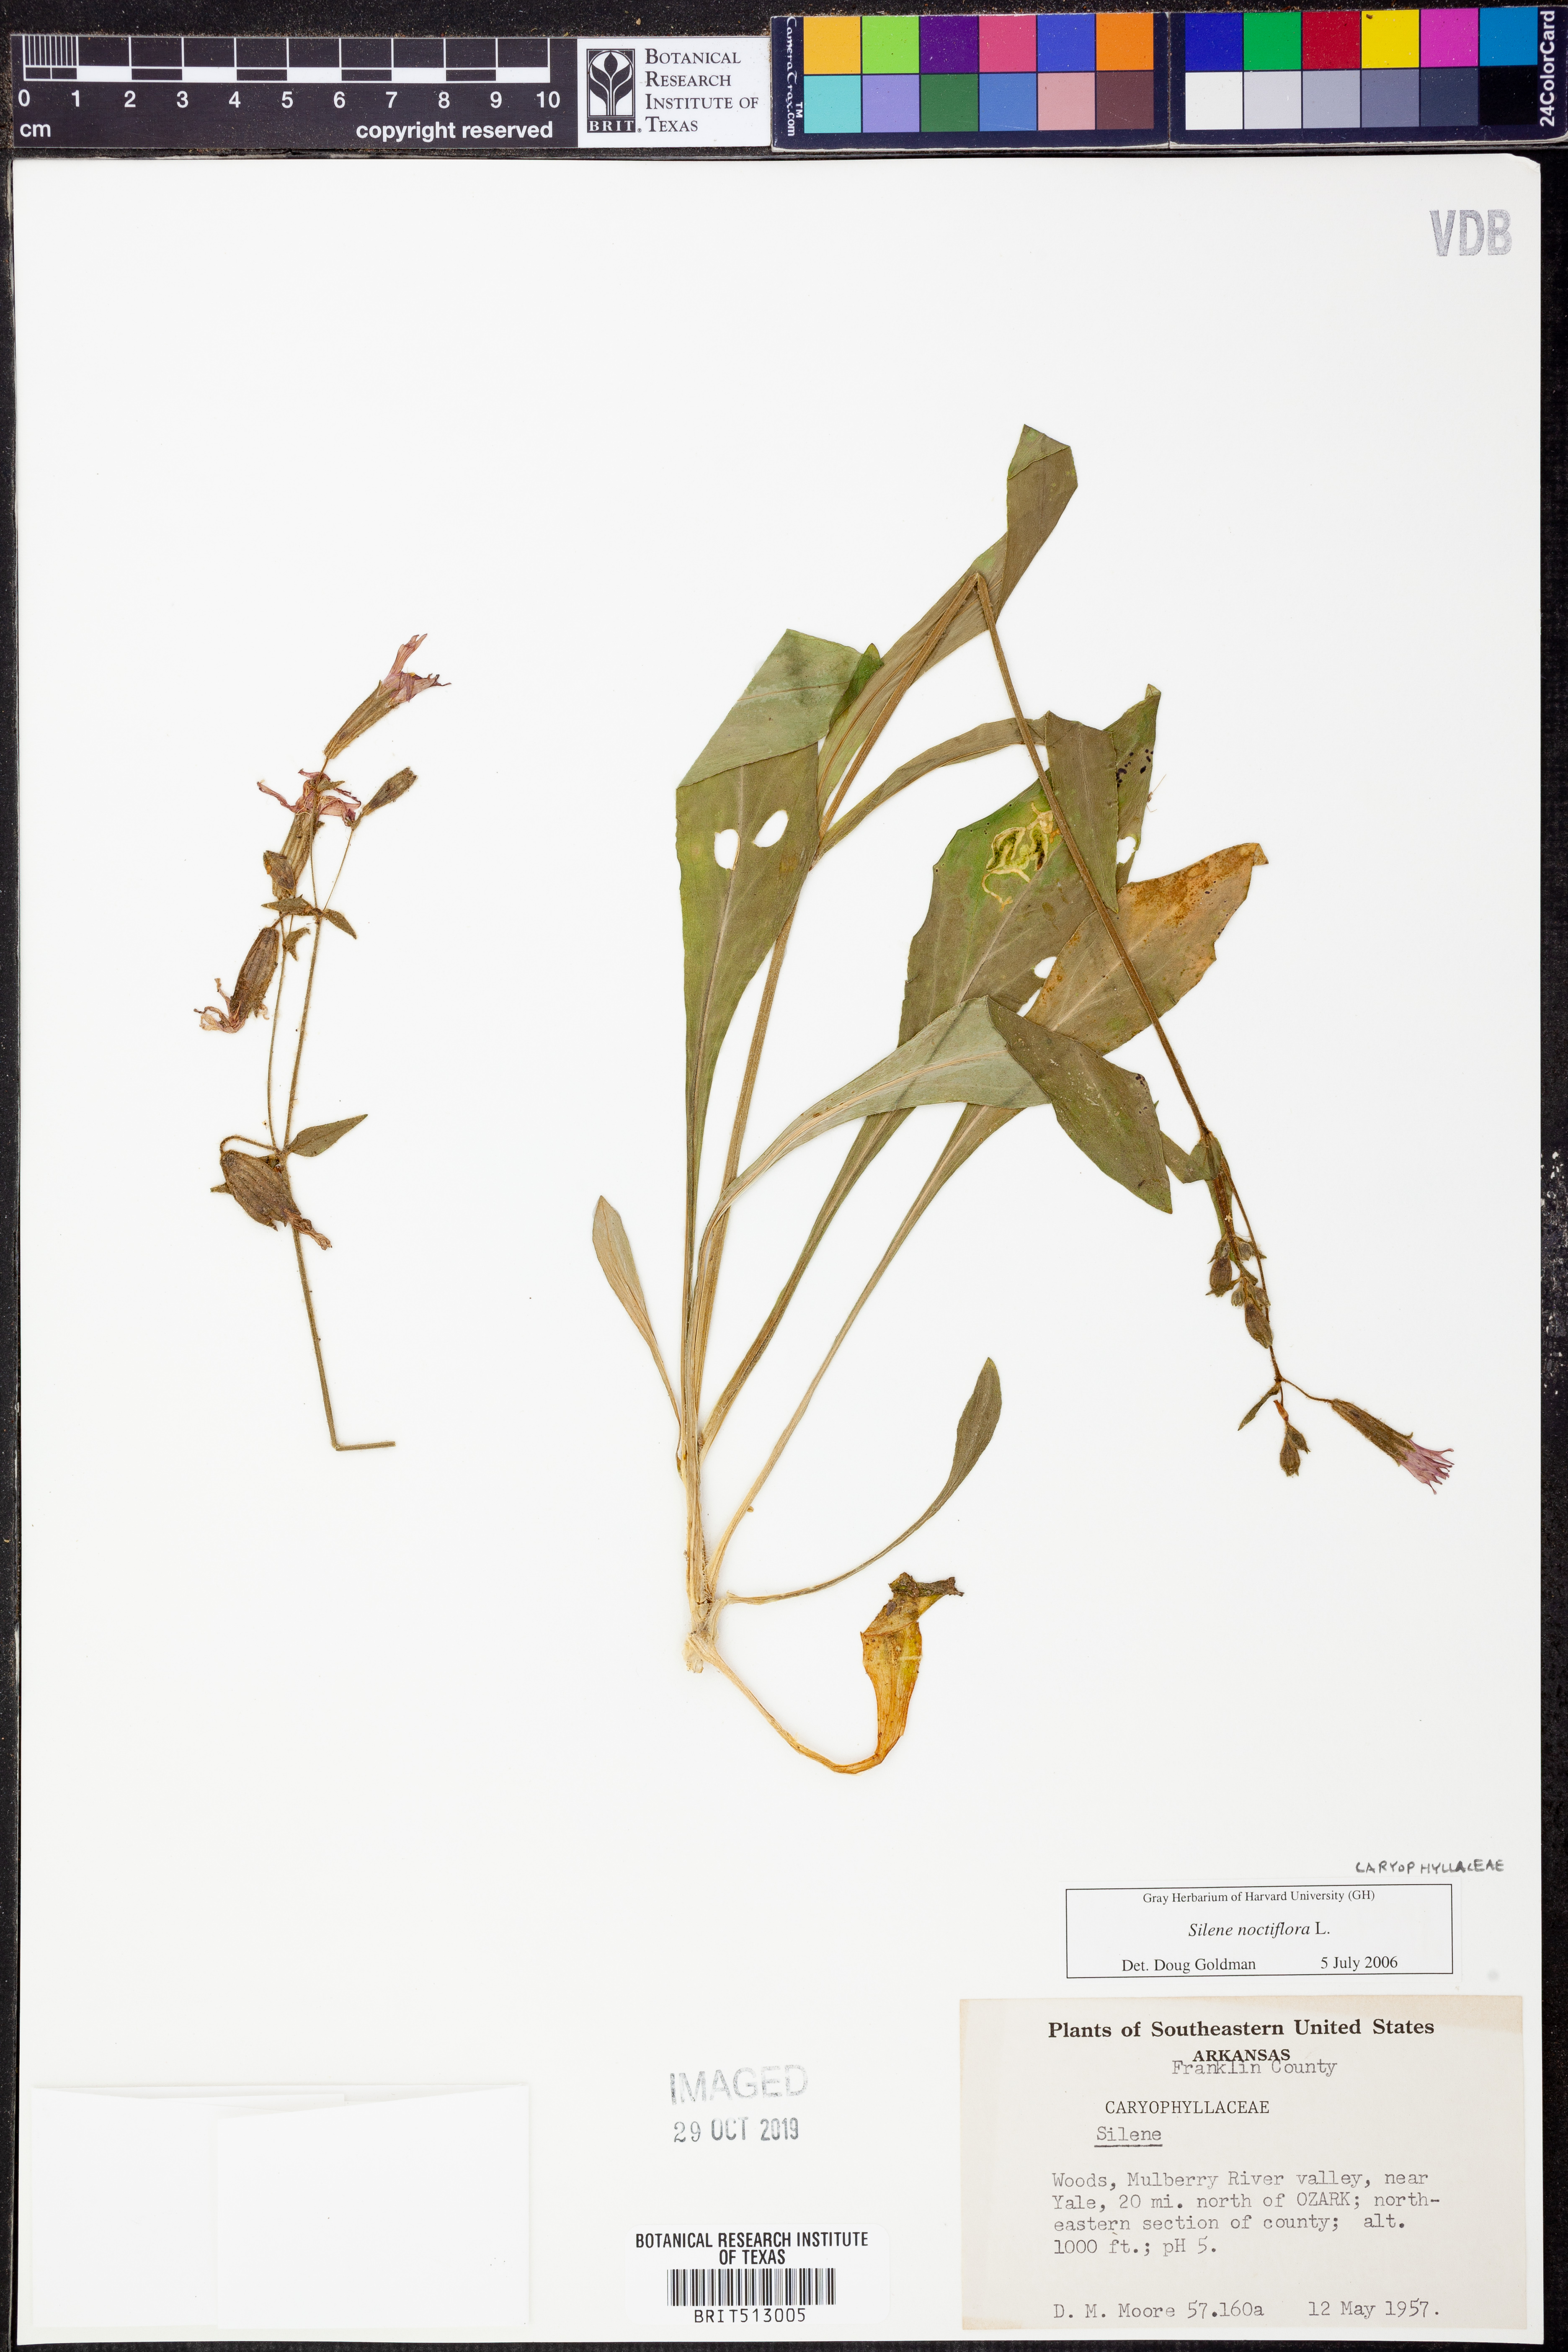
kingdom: Plantae
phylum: Tracheophyta
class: Magnoliopsida
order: Caryophyllales
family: Caryophyllaceae
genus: Silene
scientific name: Silene noctiflora
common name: Night-flowering catchfly
